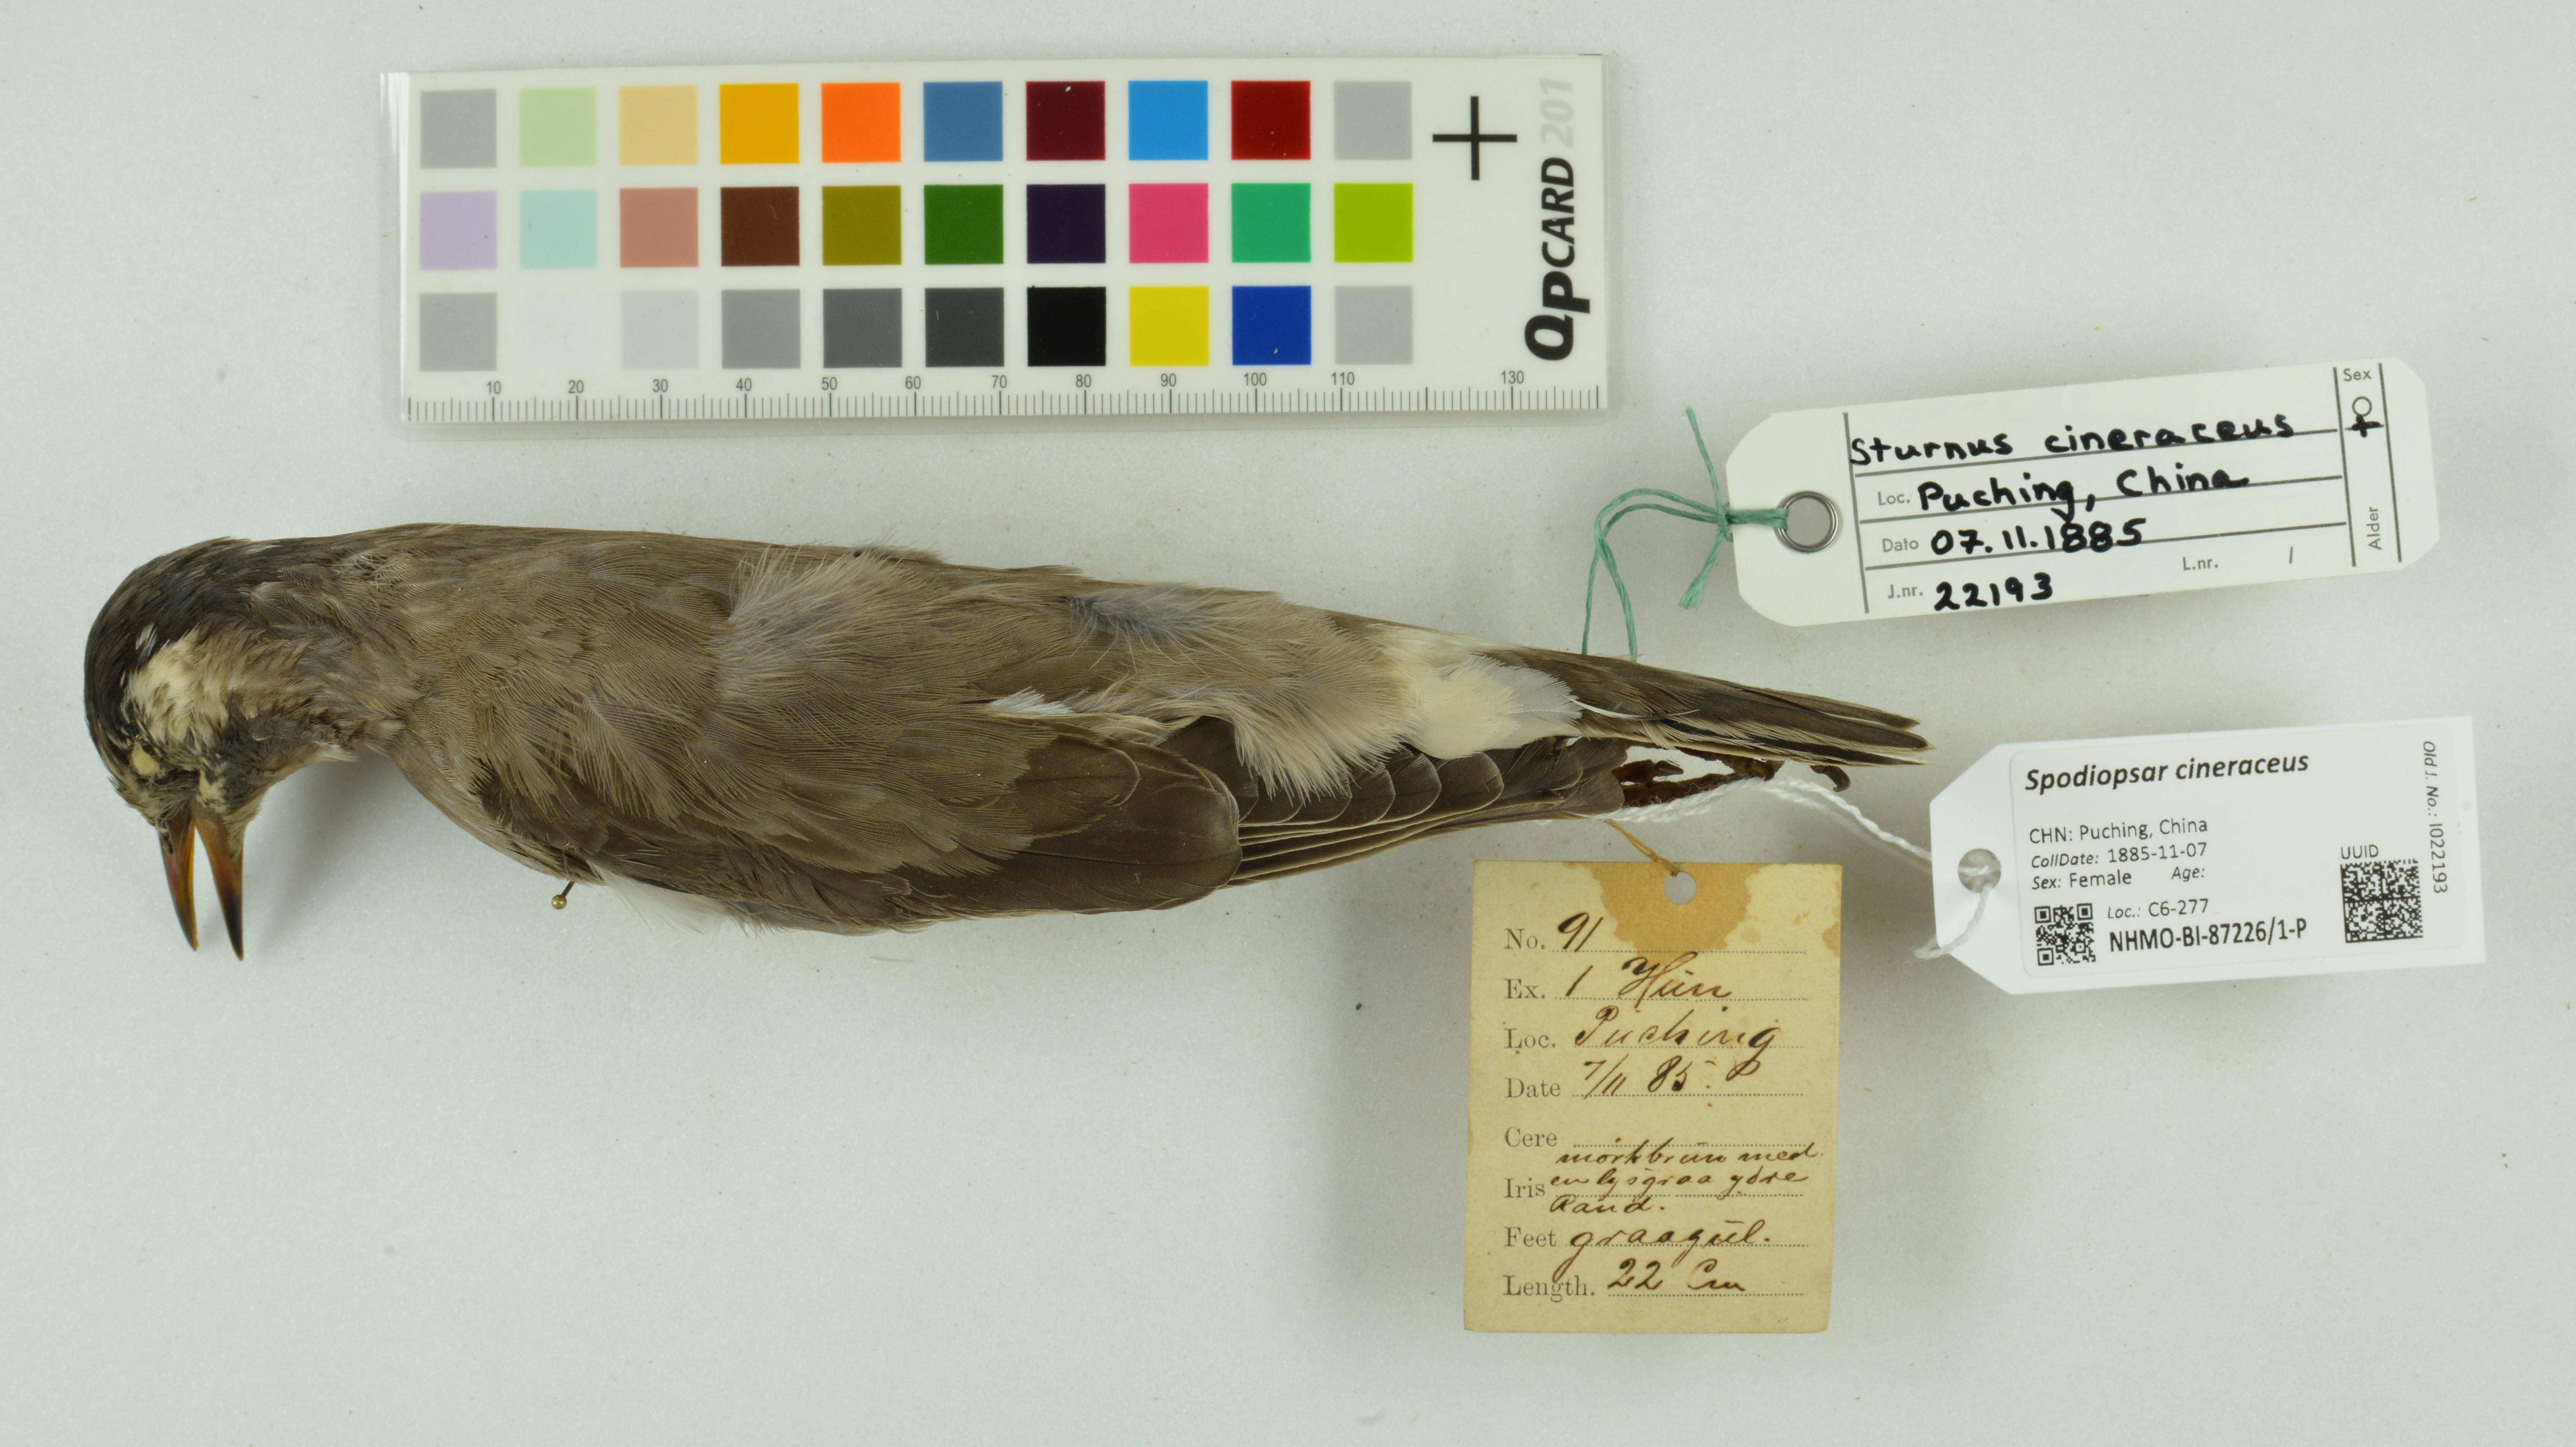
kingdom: Animalia
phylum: Chordata
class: Aves
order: Passeriformes
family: Sturnidae
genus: Spodiopsar
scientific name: Spodiopsar cineraceus
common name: White-cheeked starling
